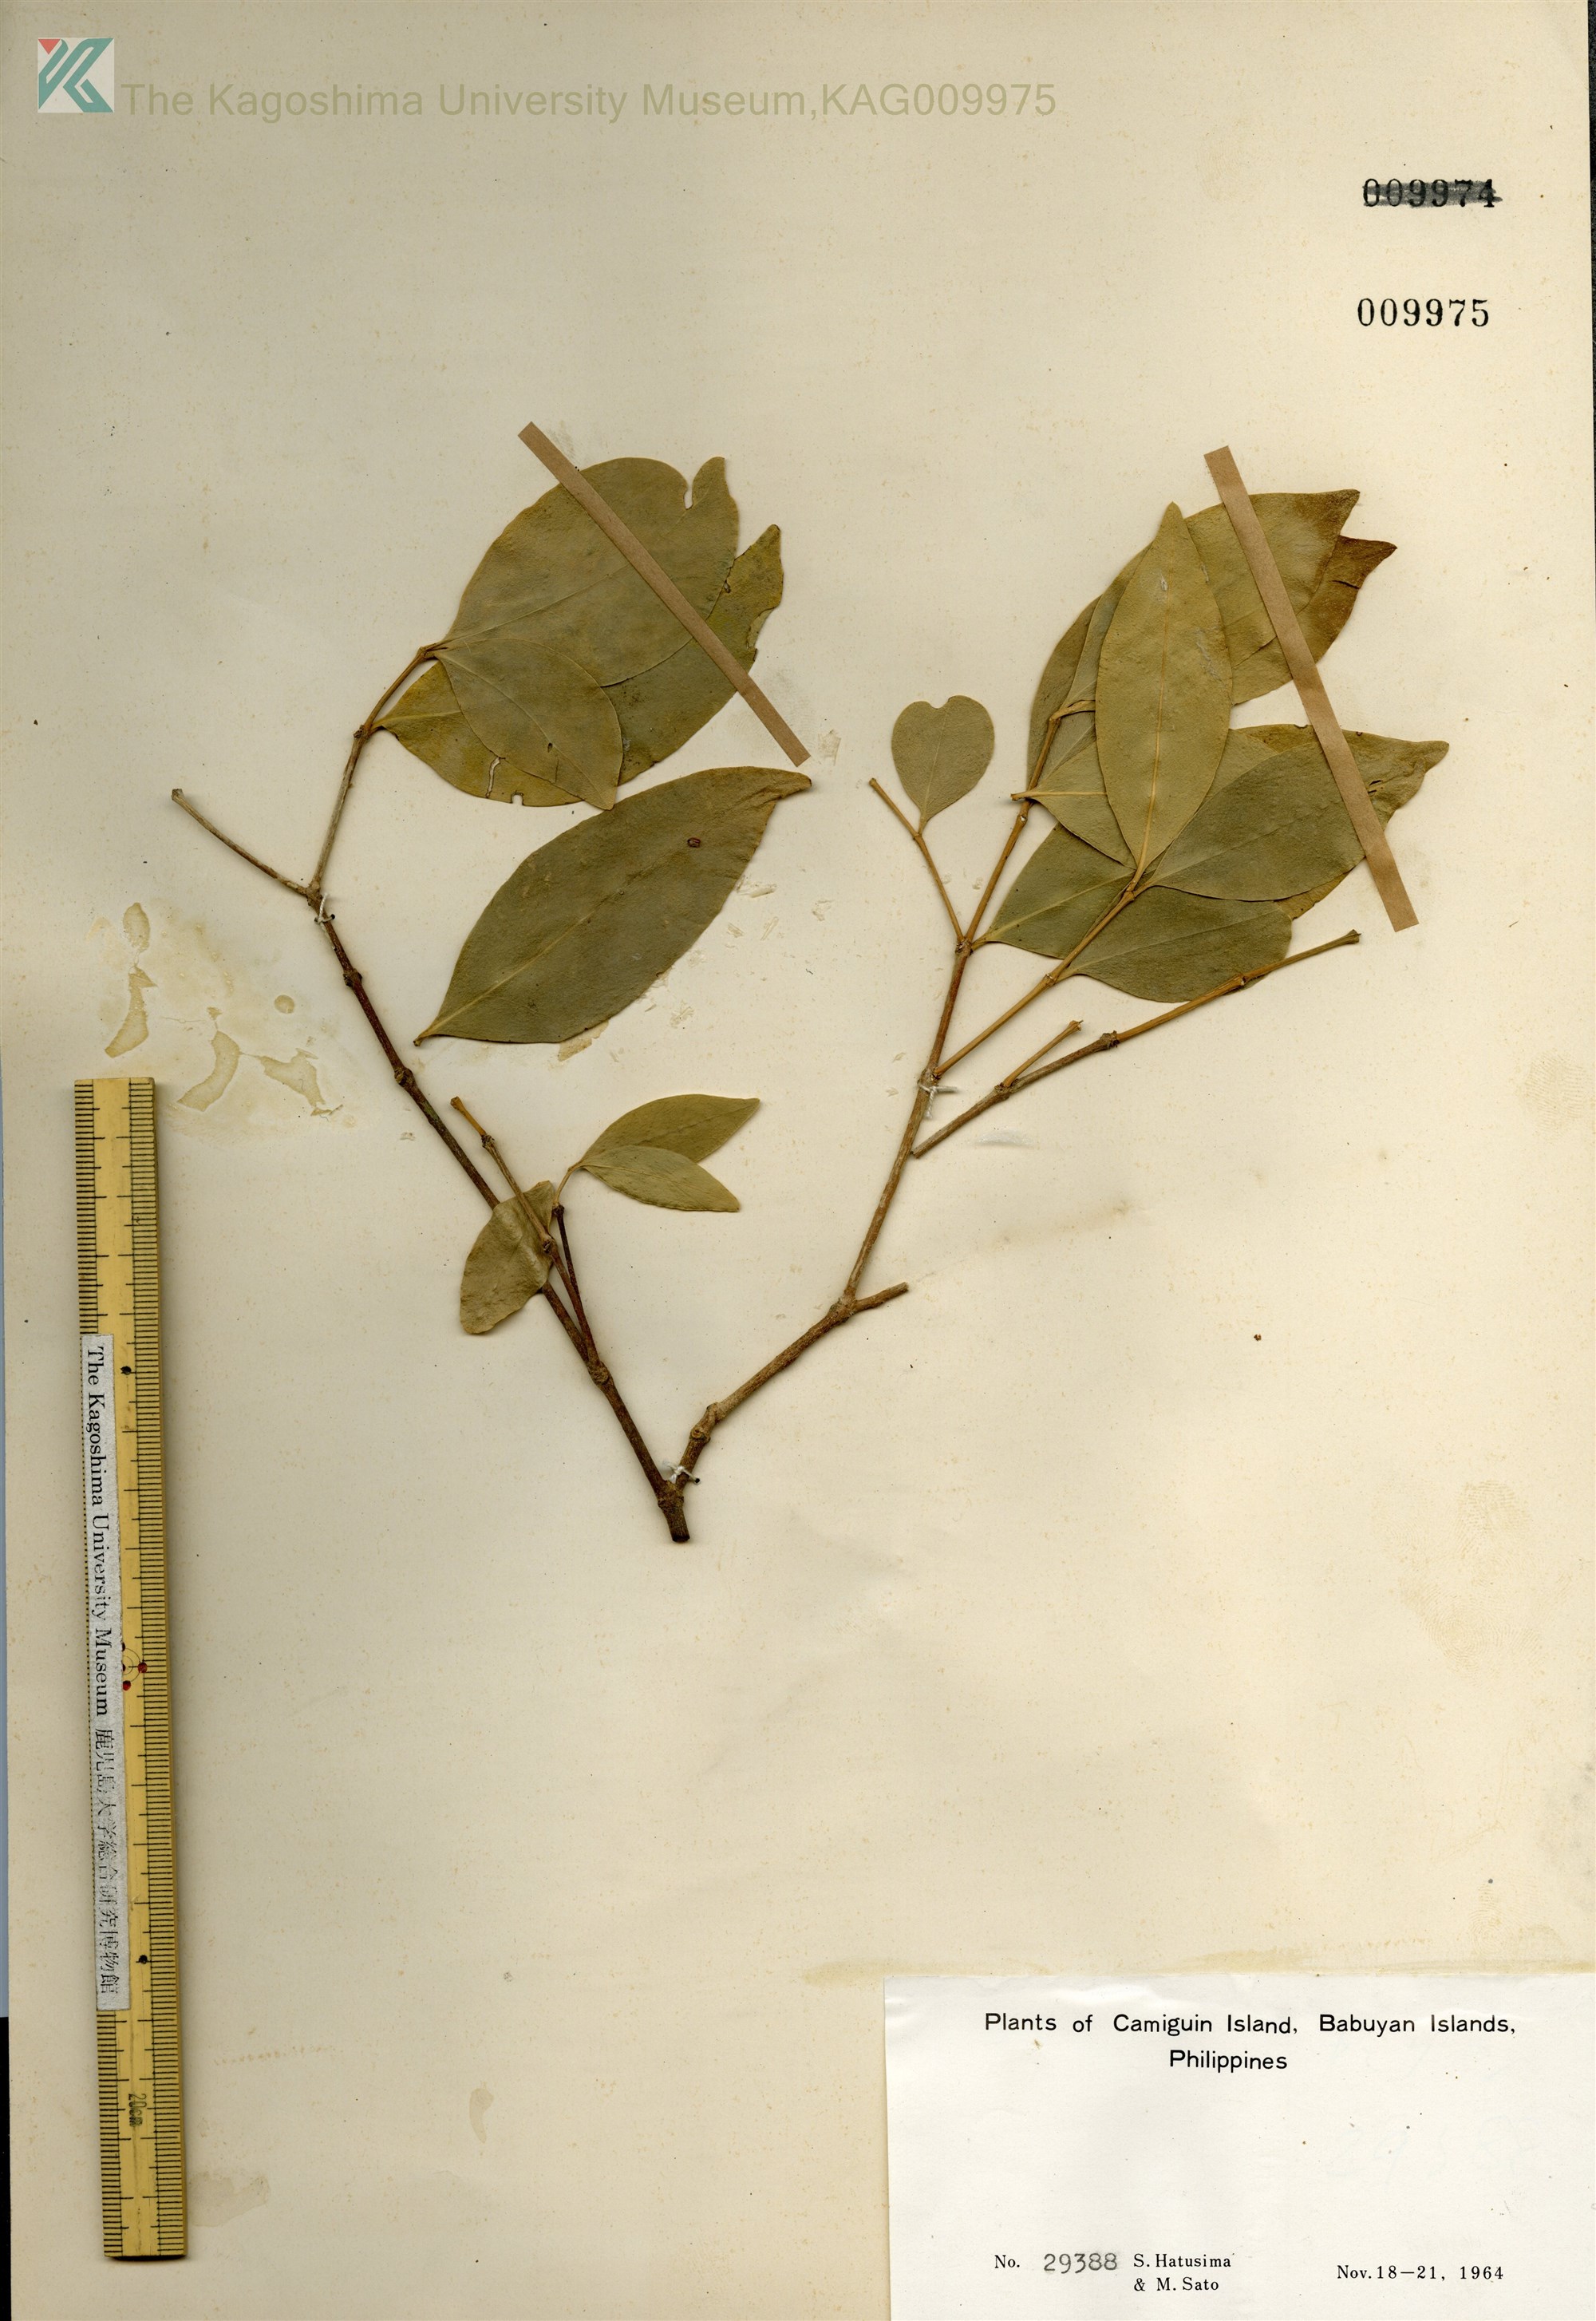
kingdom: Plantae
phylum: Tracheophyta
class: Magnoliopsida
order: Celastrales
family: Celastraceae
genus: Hippocratea
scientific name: Hippocratea
